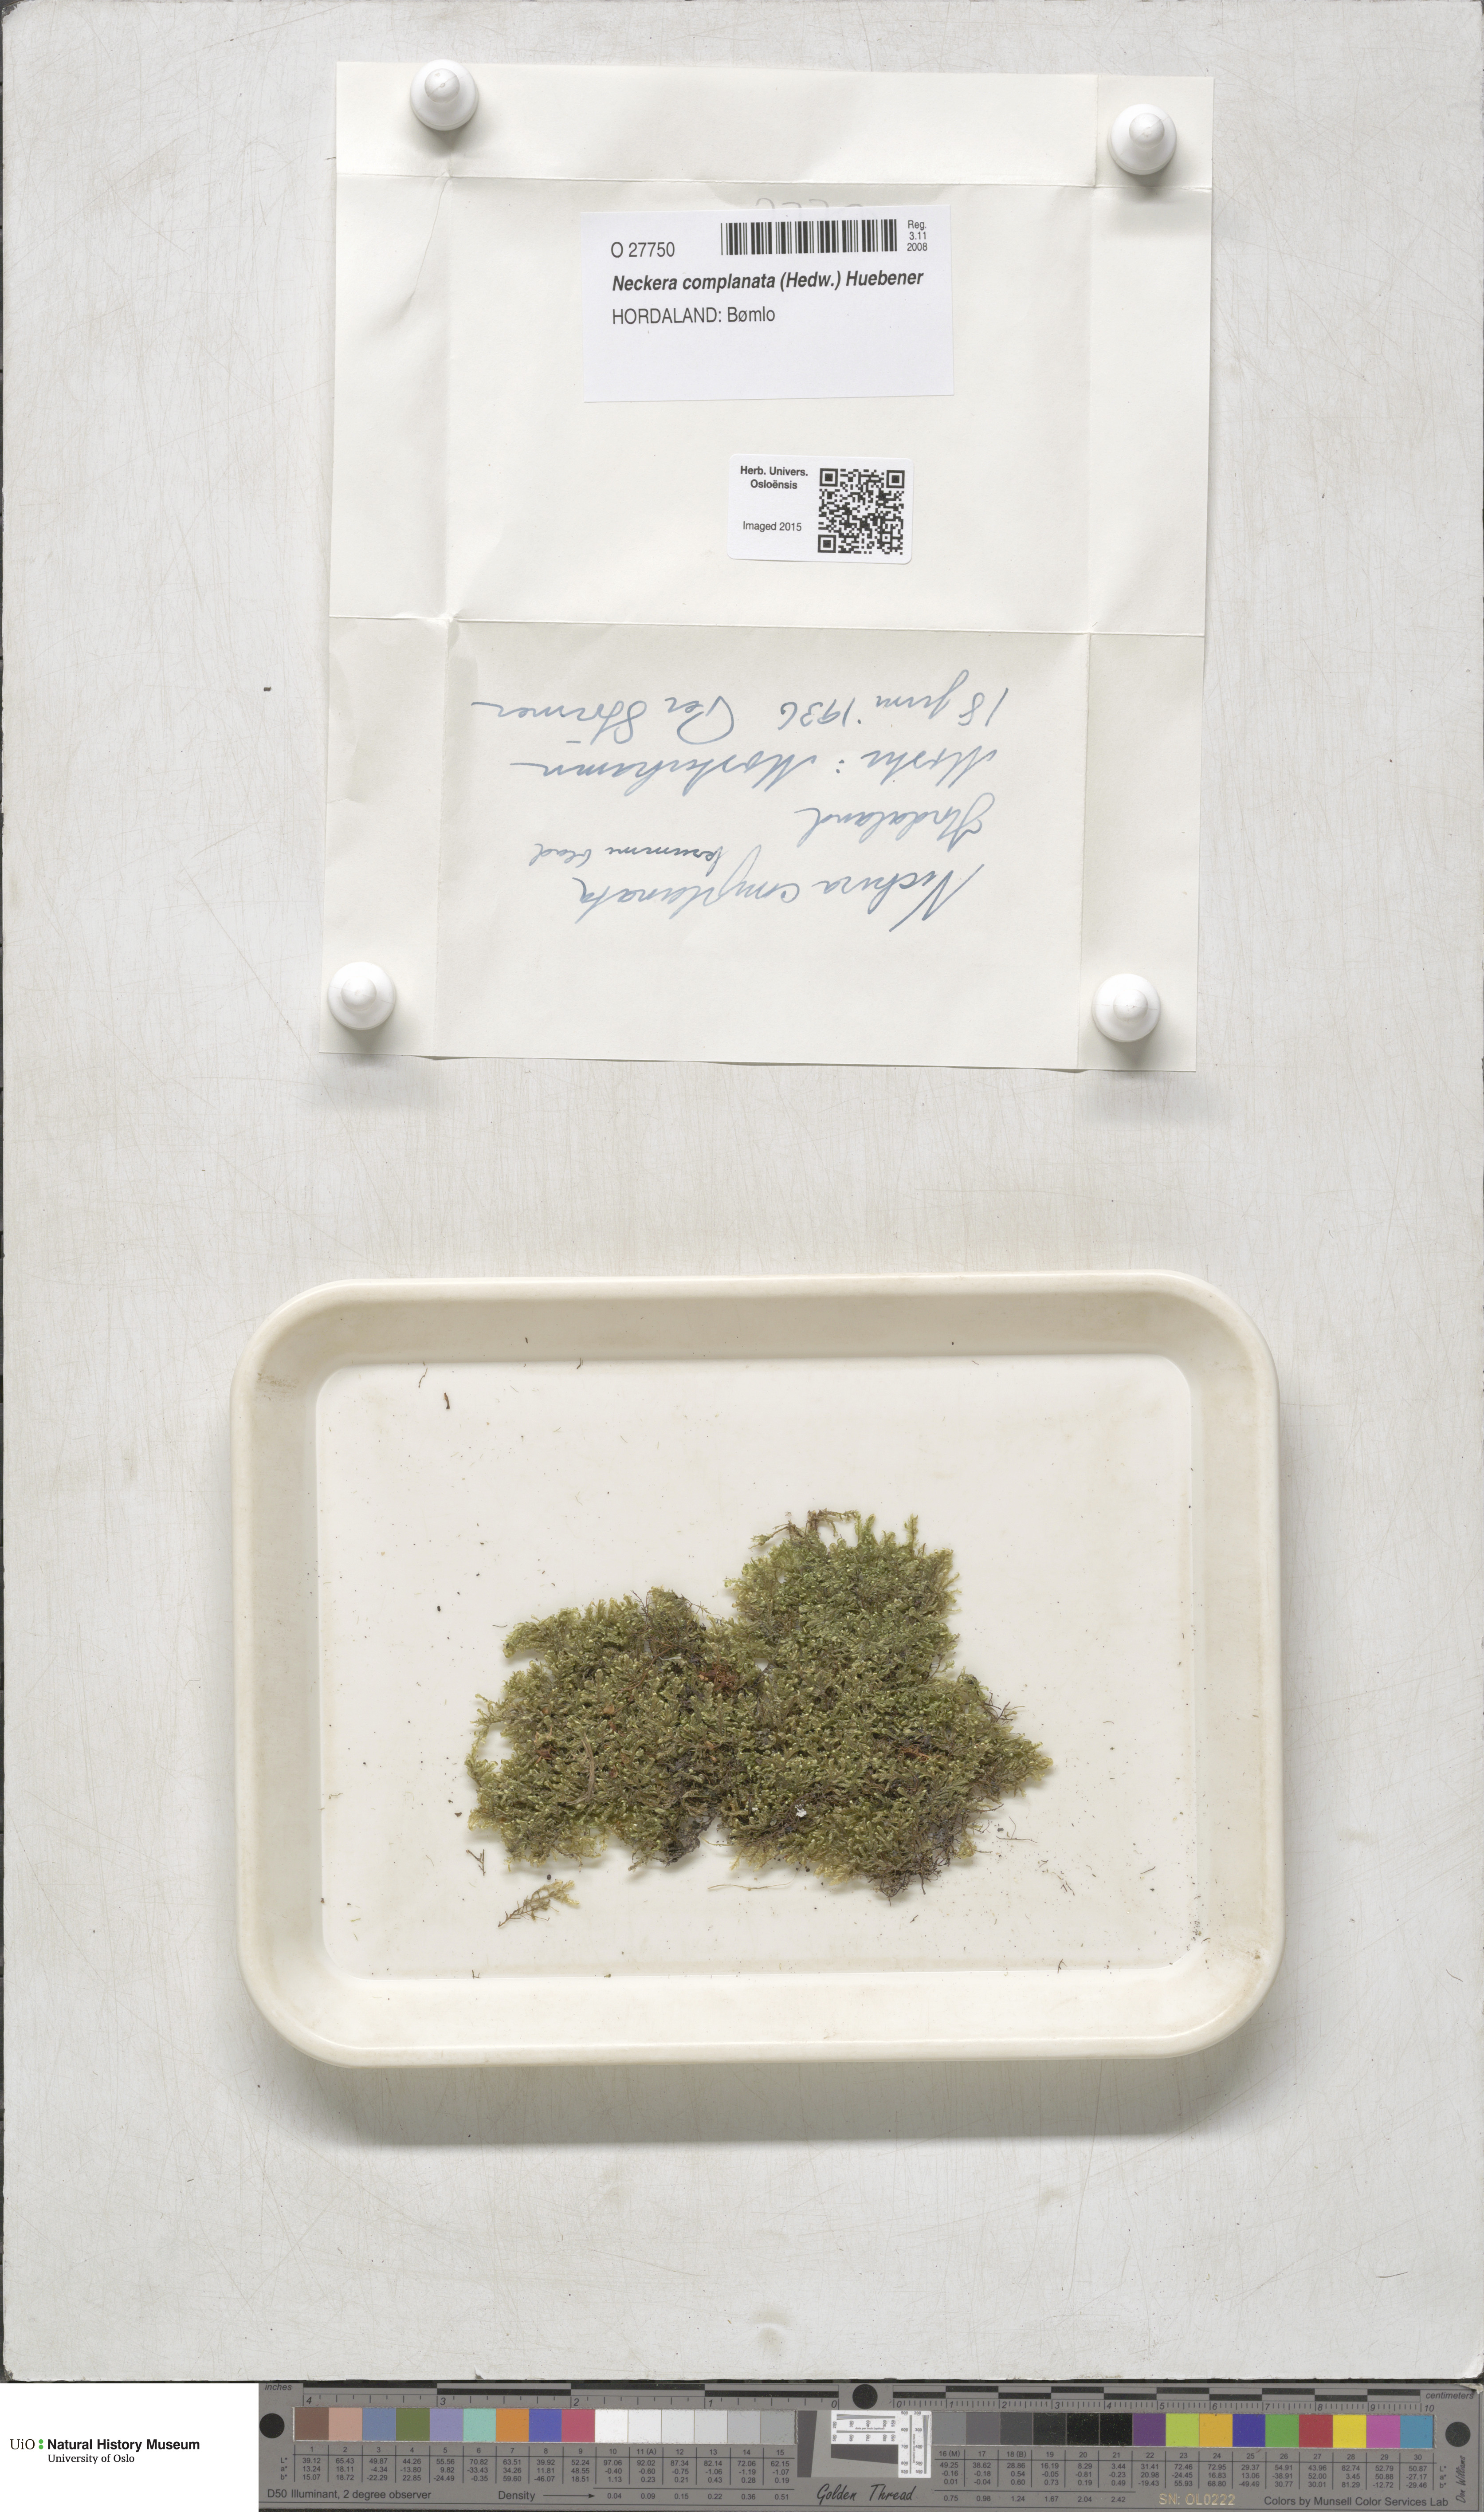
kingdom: Plantae
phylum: Bryophyta
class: Bryopsida
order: Hypnales
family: Neckeraceae
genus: Alleniella
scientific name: Alleniella complanata
